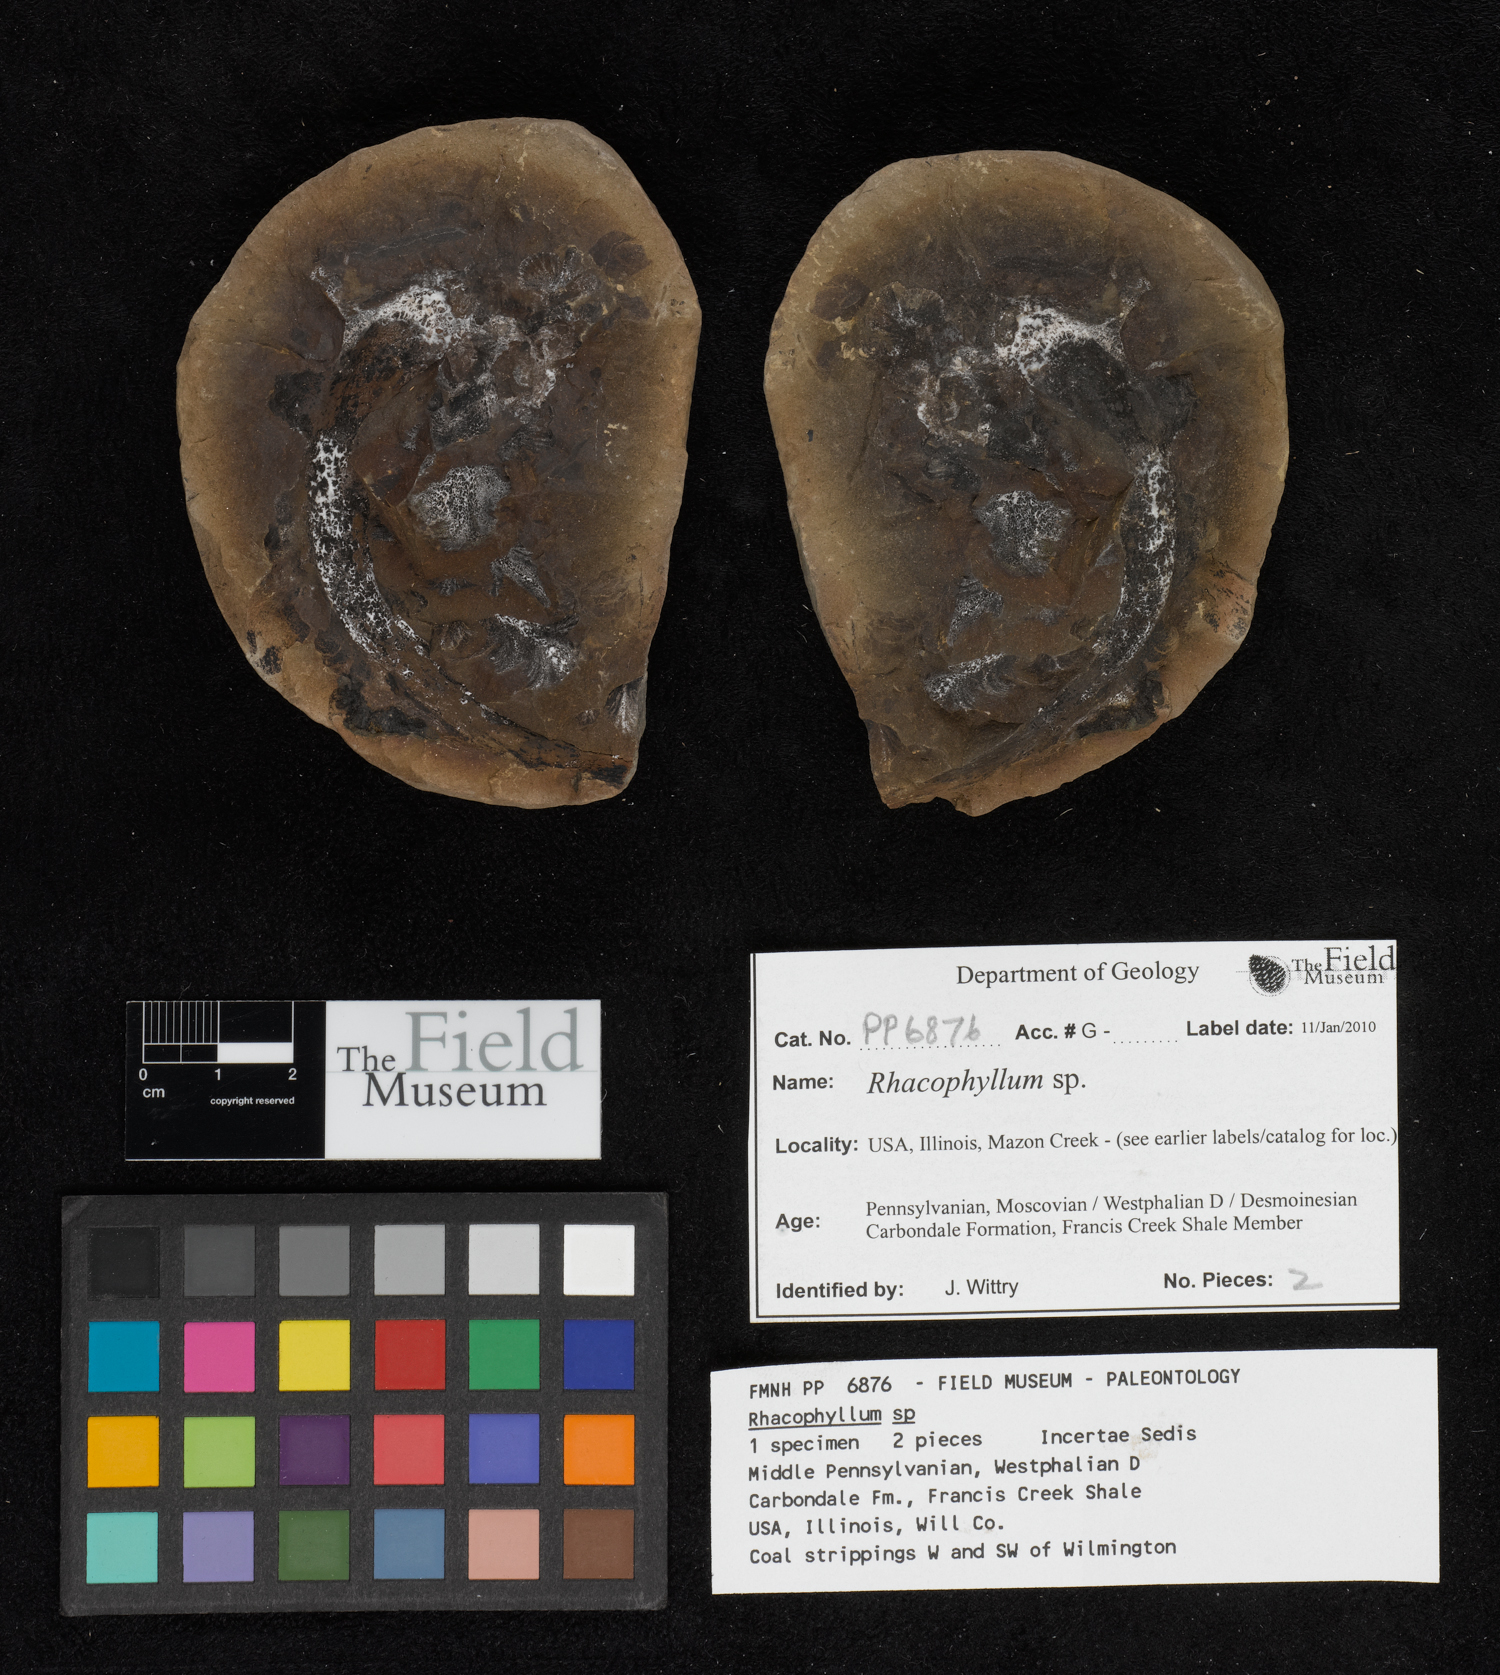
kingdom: Plantae
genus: Rhacophyllum
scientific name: Rhacophyllum
